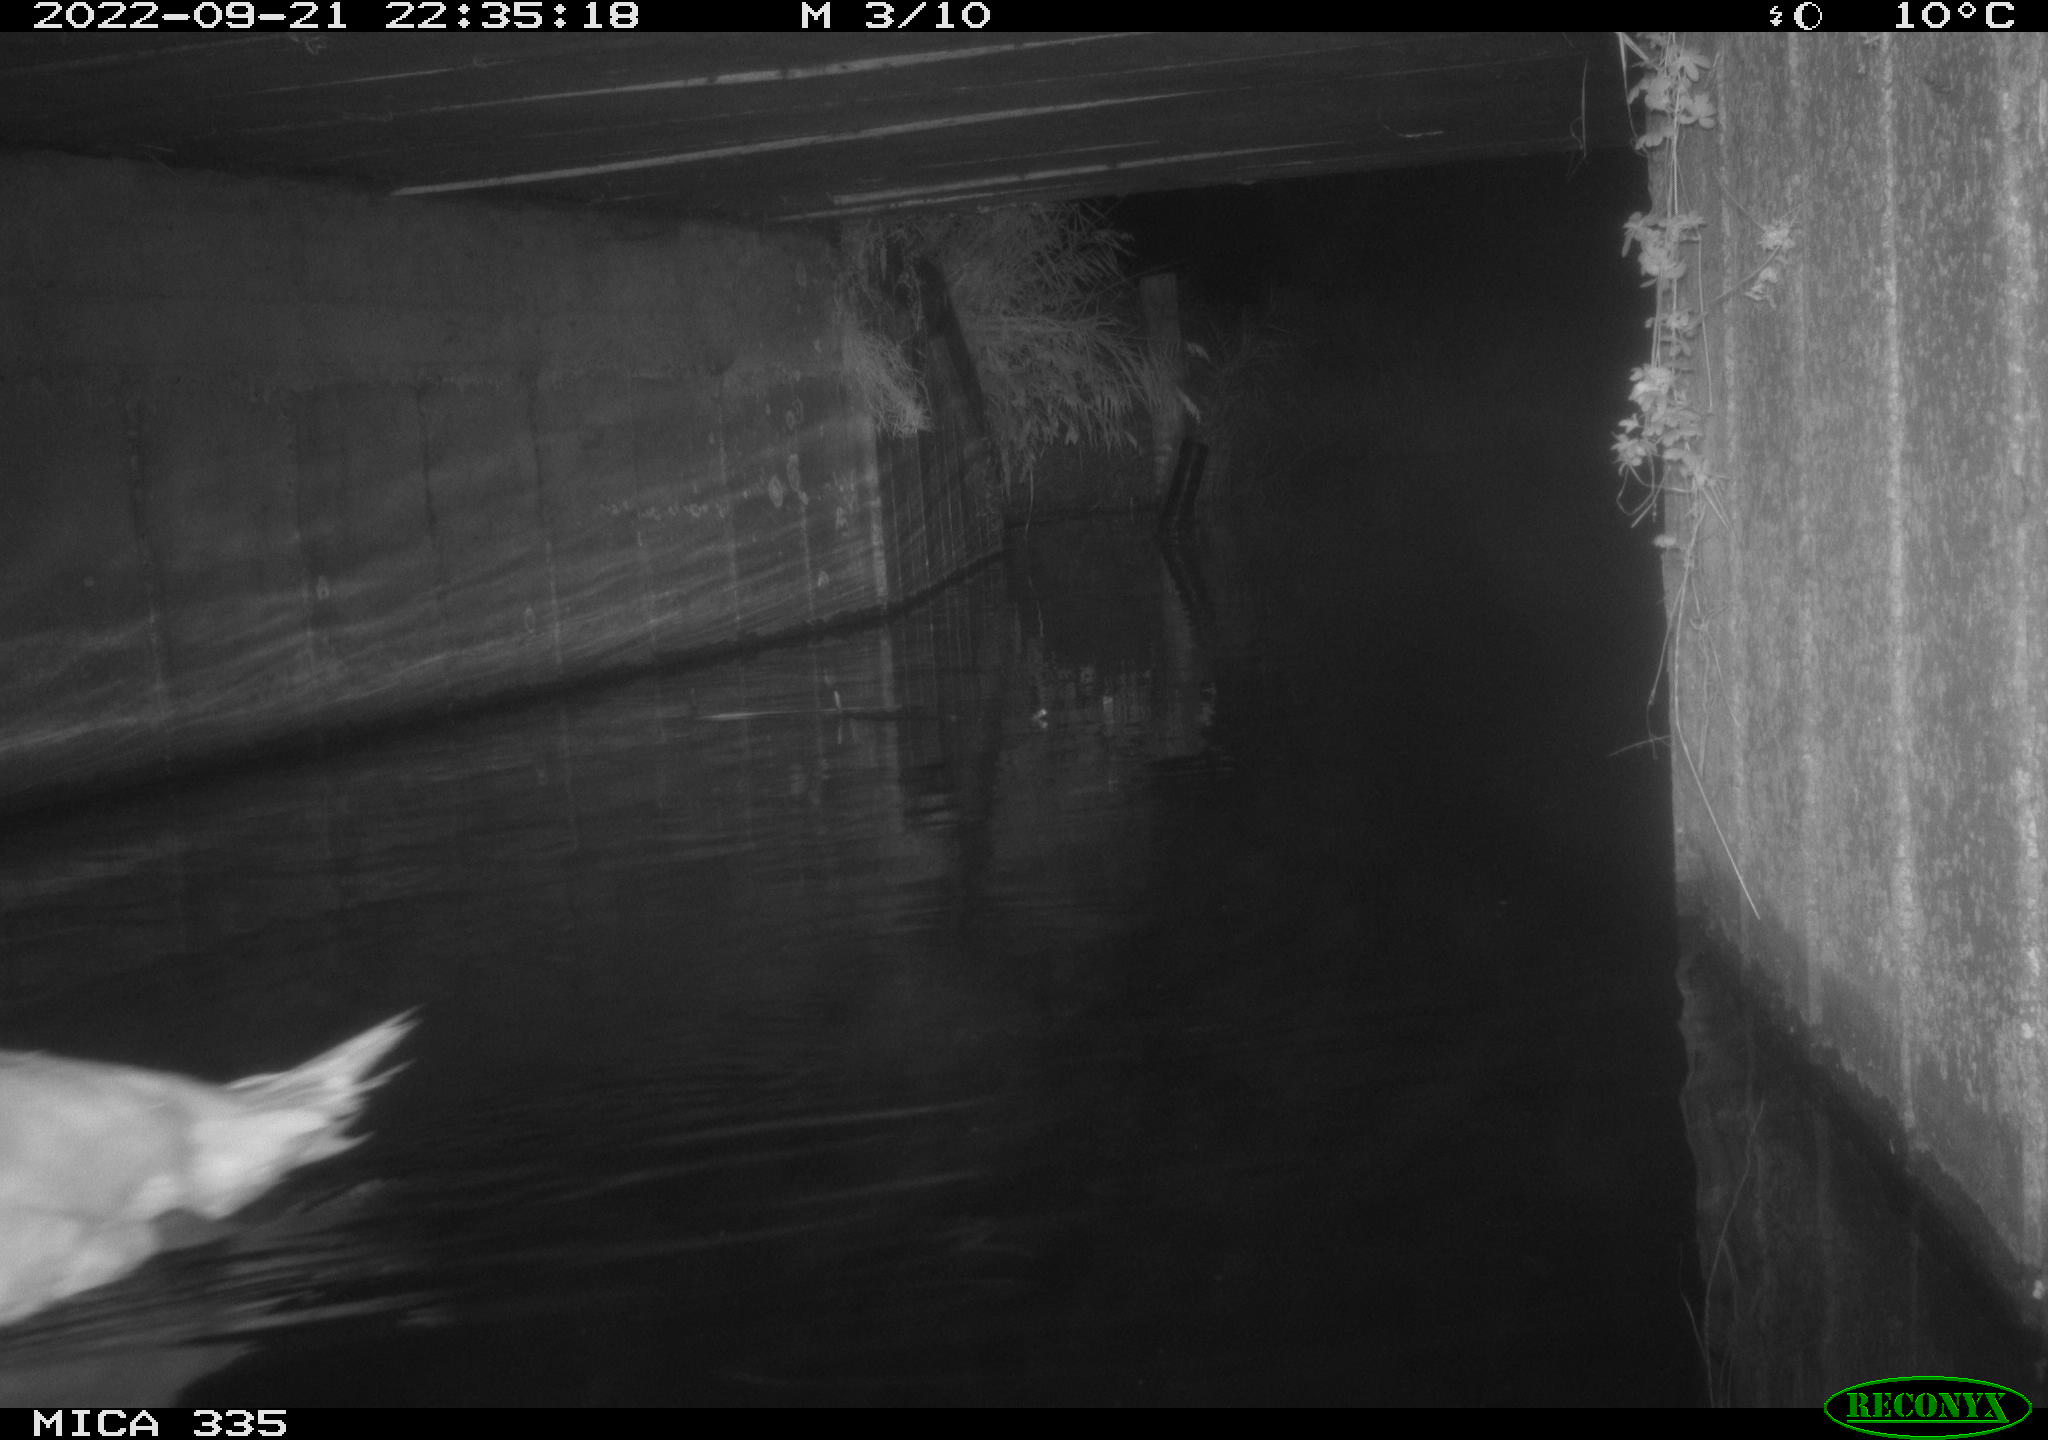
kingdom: Animalia
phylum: Chordata
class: Aves
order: Anseriformes
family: Anatidae
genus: Cygnus
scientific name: Cygnus olor
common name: Mute swan
